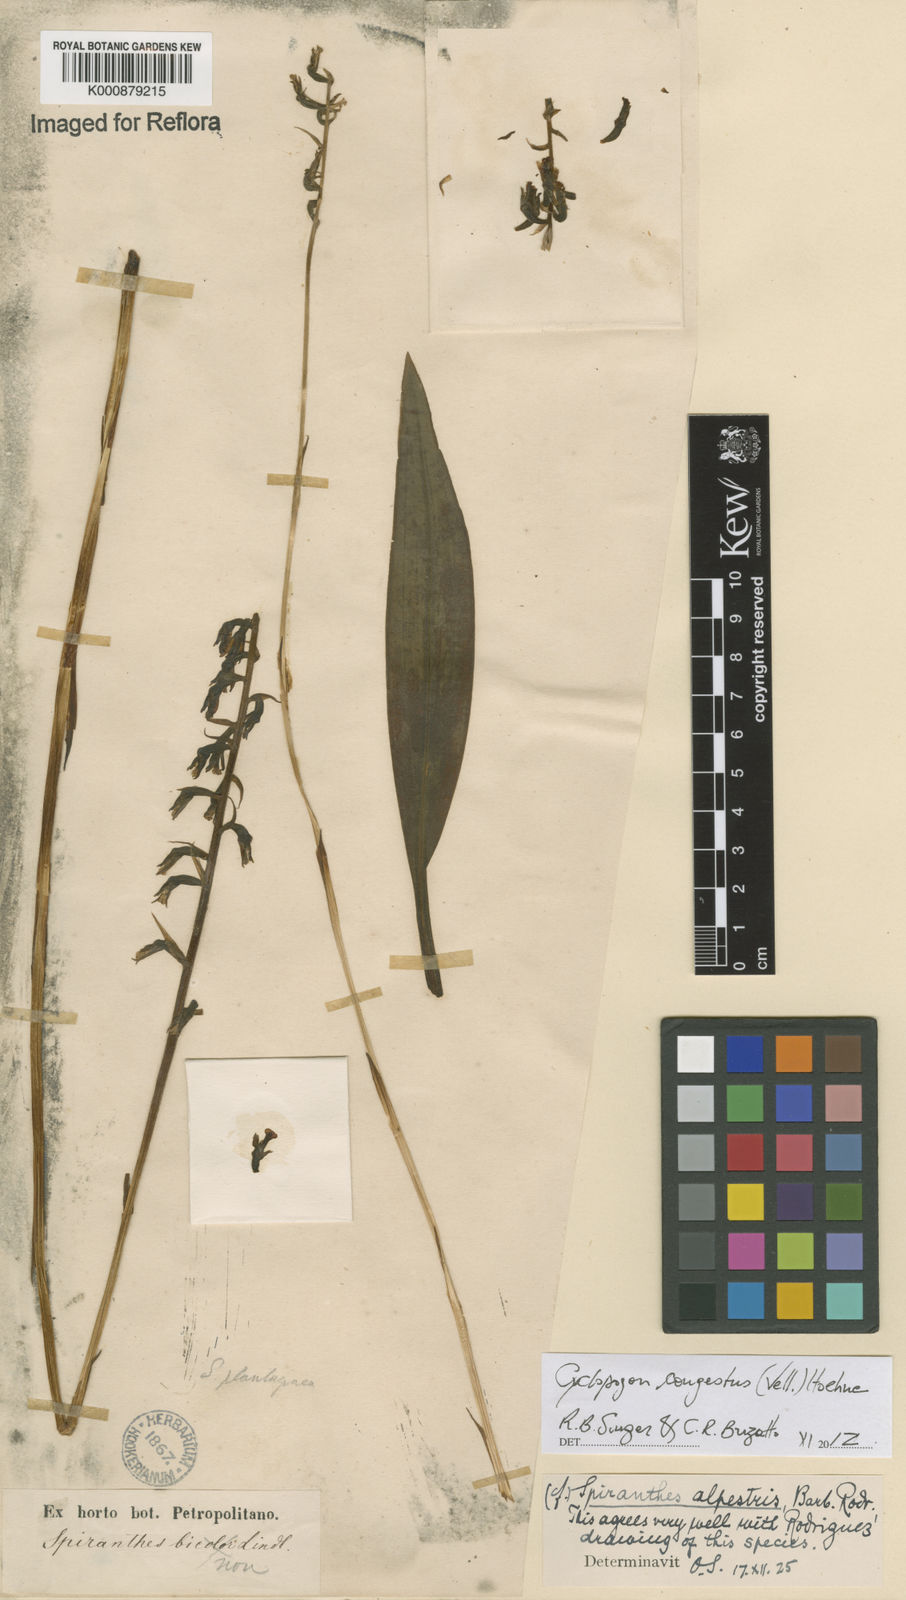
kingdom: Plantae
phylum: Tracheophyta
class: Liliopsida
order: Asparagales
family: Orchidaceae
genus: Cyclopogon
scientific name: Cyclopogon congestus
